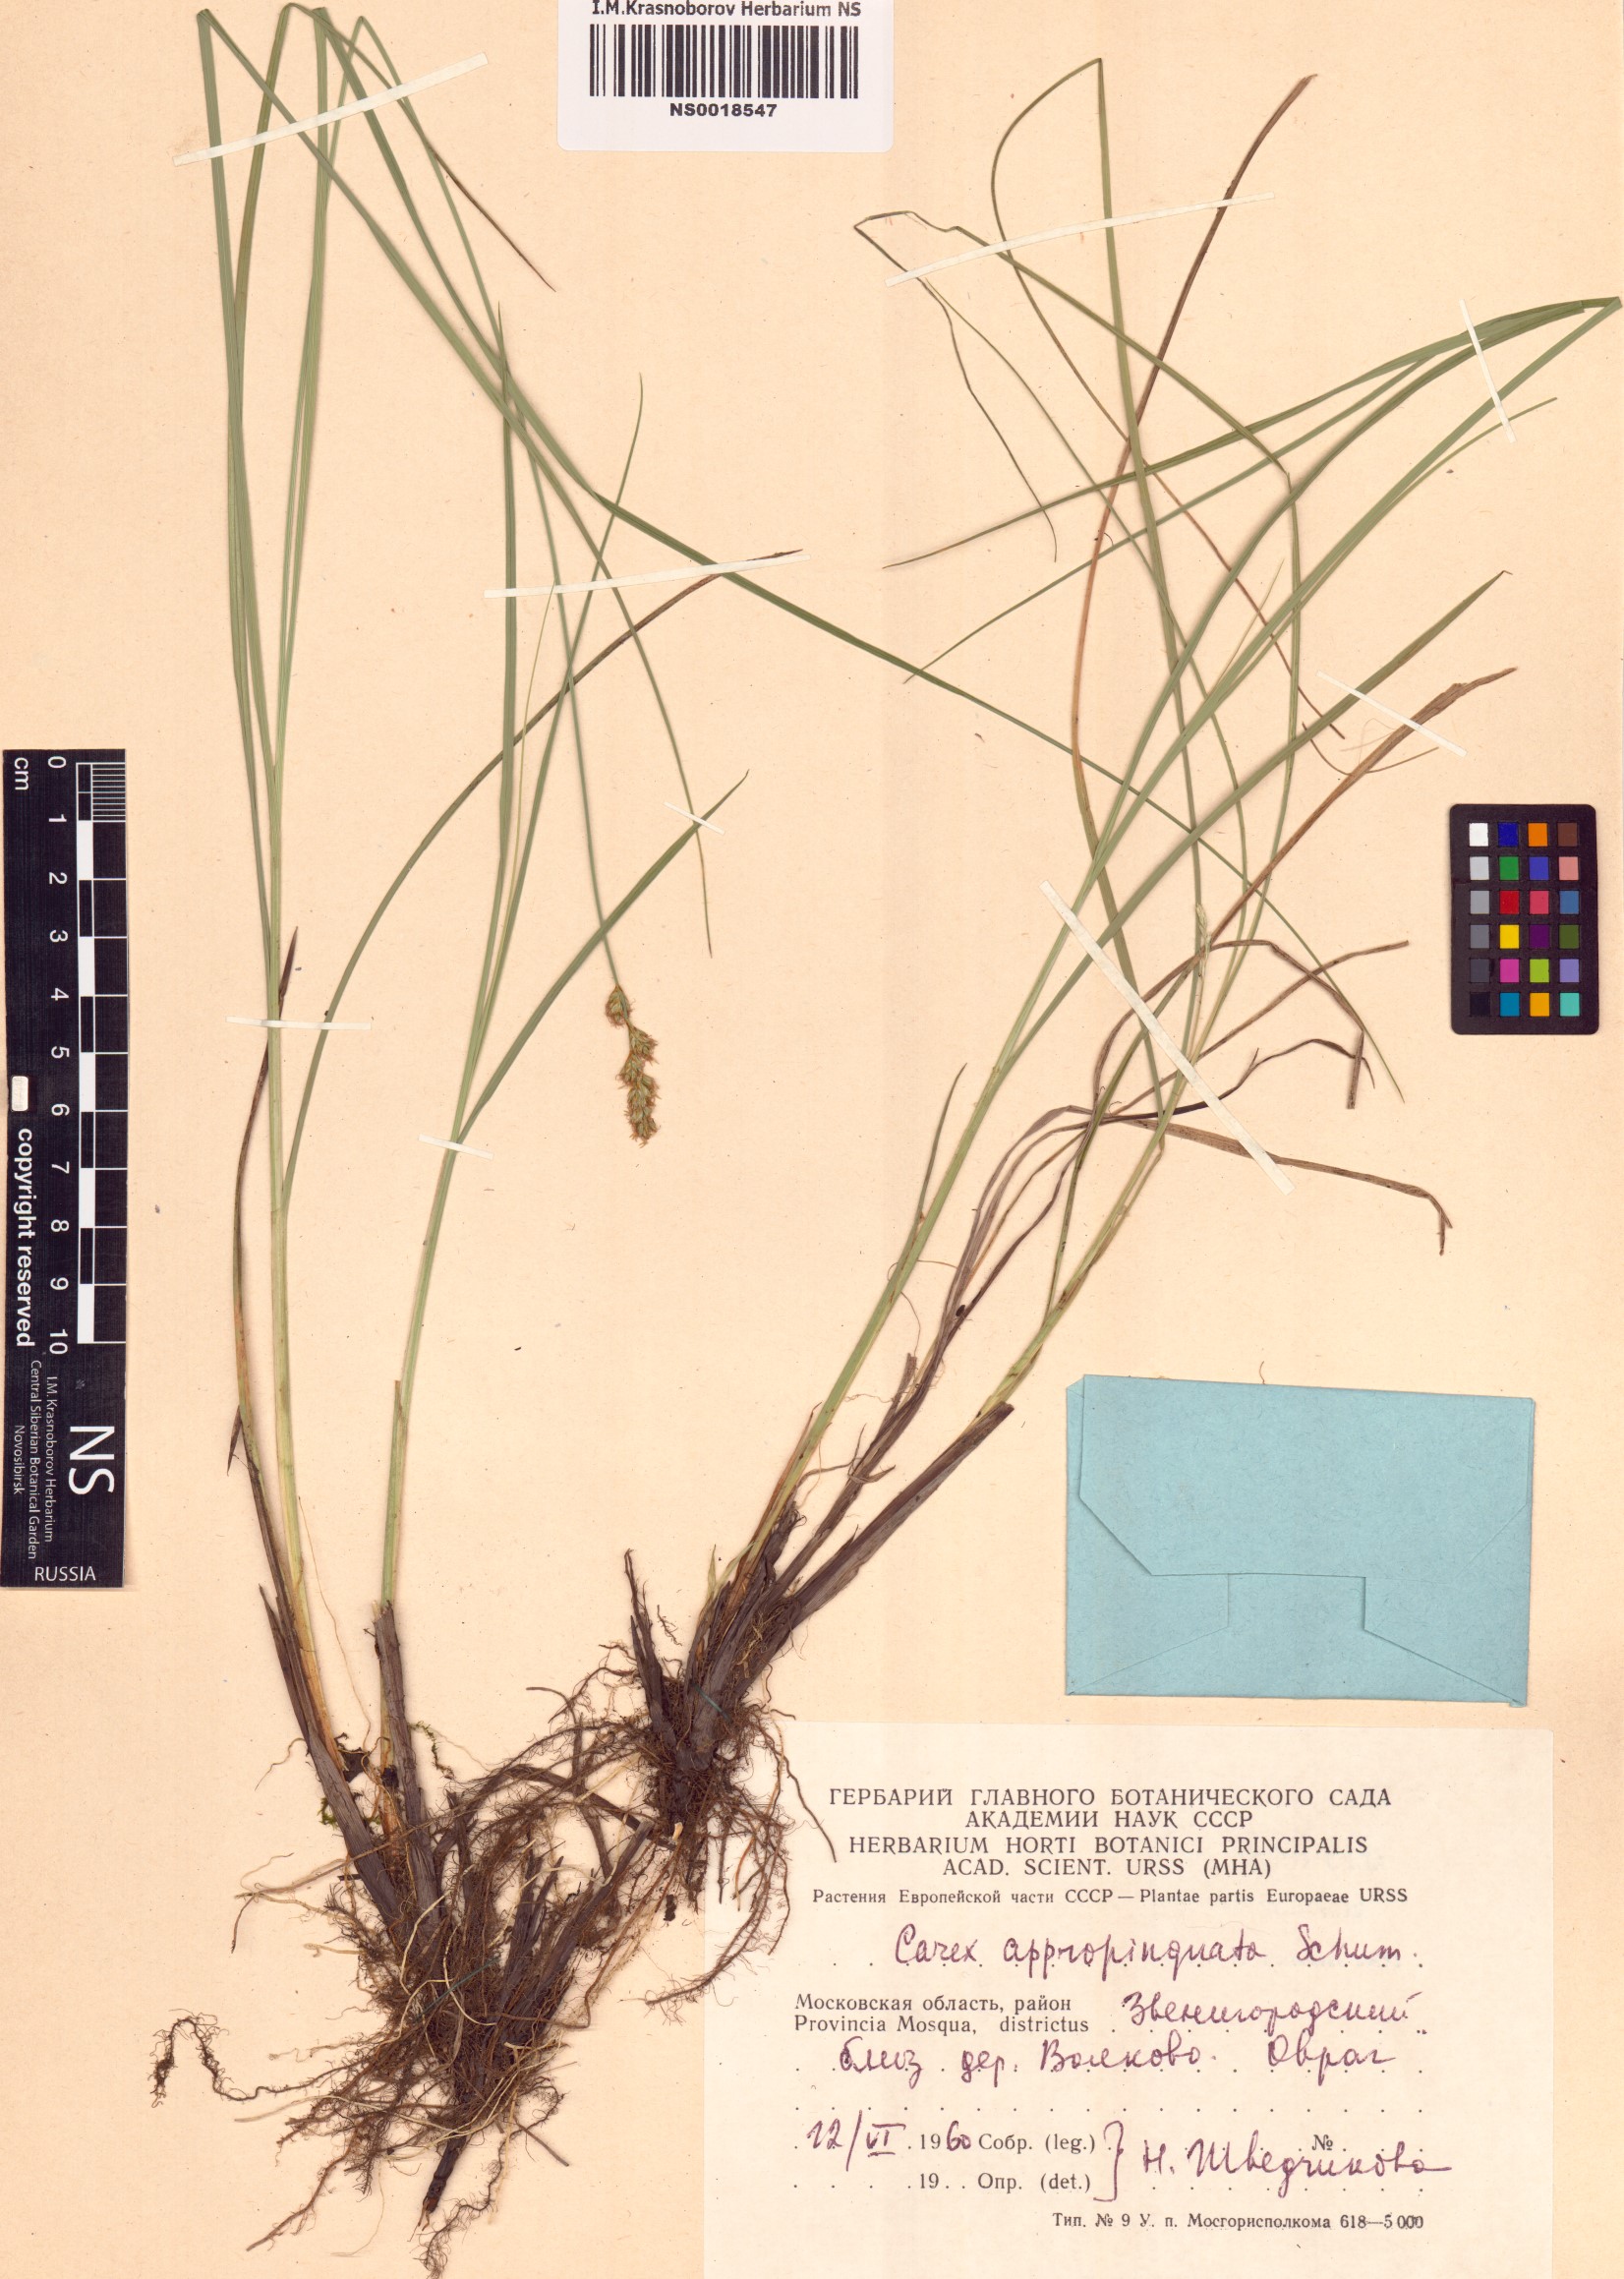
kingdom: Plantae
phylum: Tracheophyta
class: Liliopsida
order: Poales
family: Cyperaceae
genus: Carex
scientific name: Carex appropinquata
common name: Fibrous tussock-sedge
